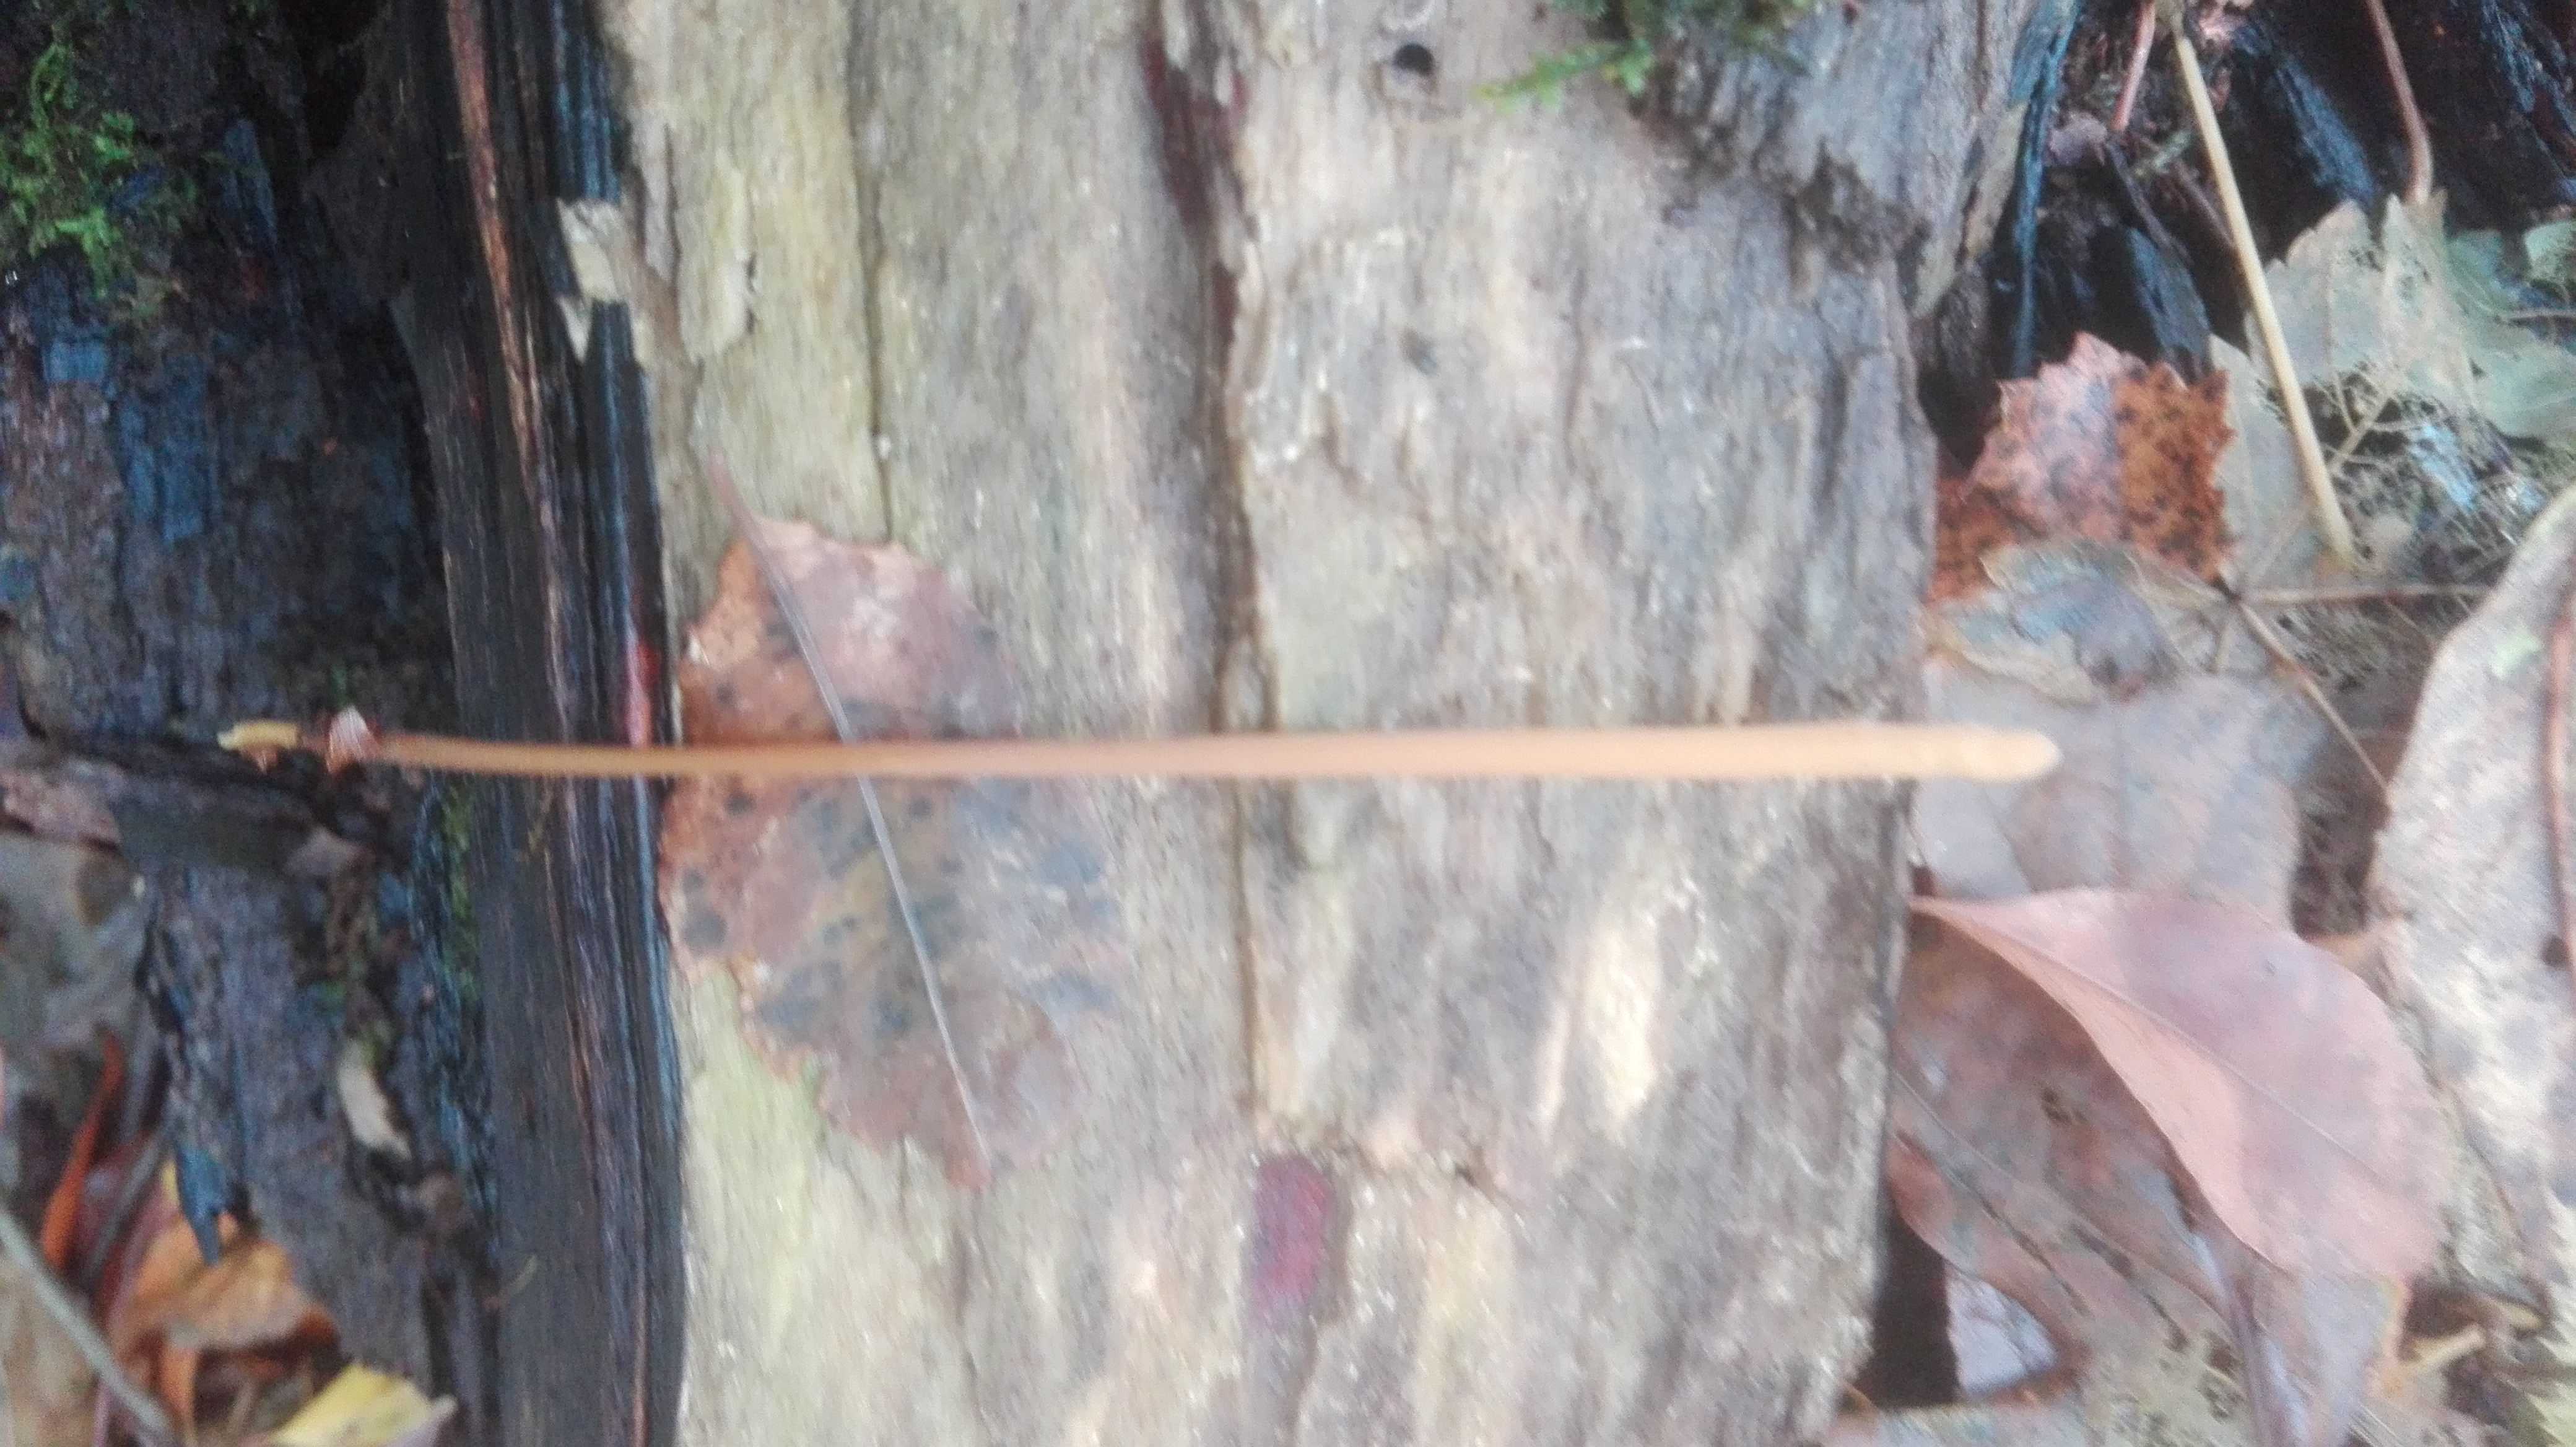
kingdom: Fungi
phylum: Basidiomycota
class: Agaricomycetes
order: Agaricales
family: Typhulaceae
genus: Typhula
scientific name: Typhula fistulosa
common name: pibet rørkølle
